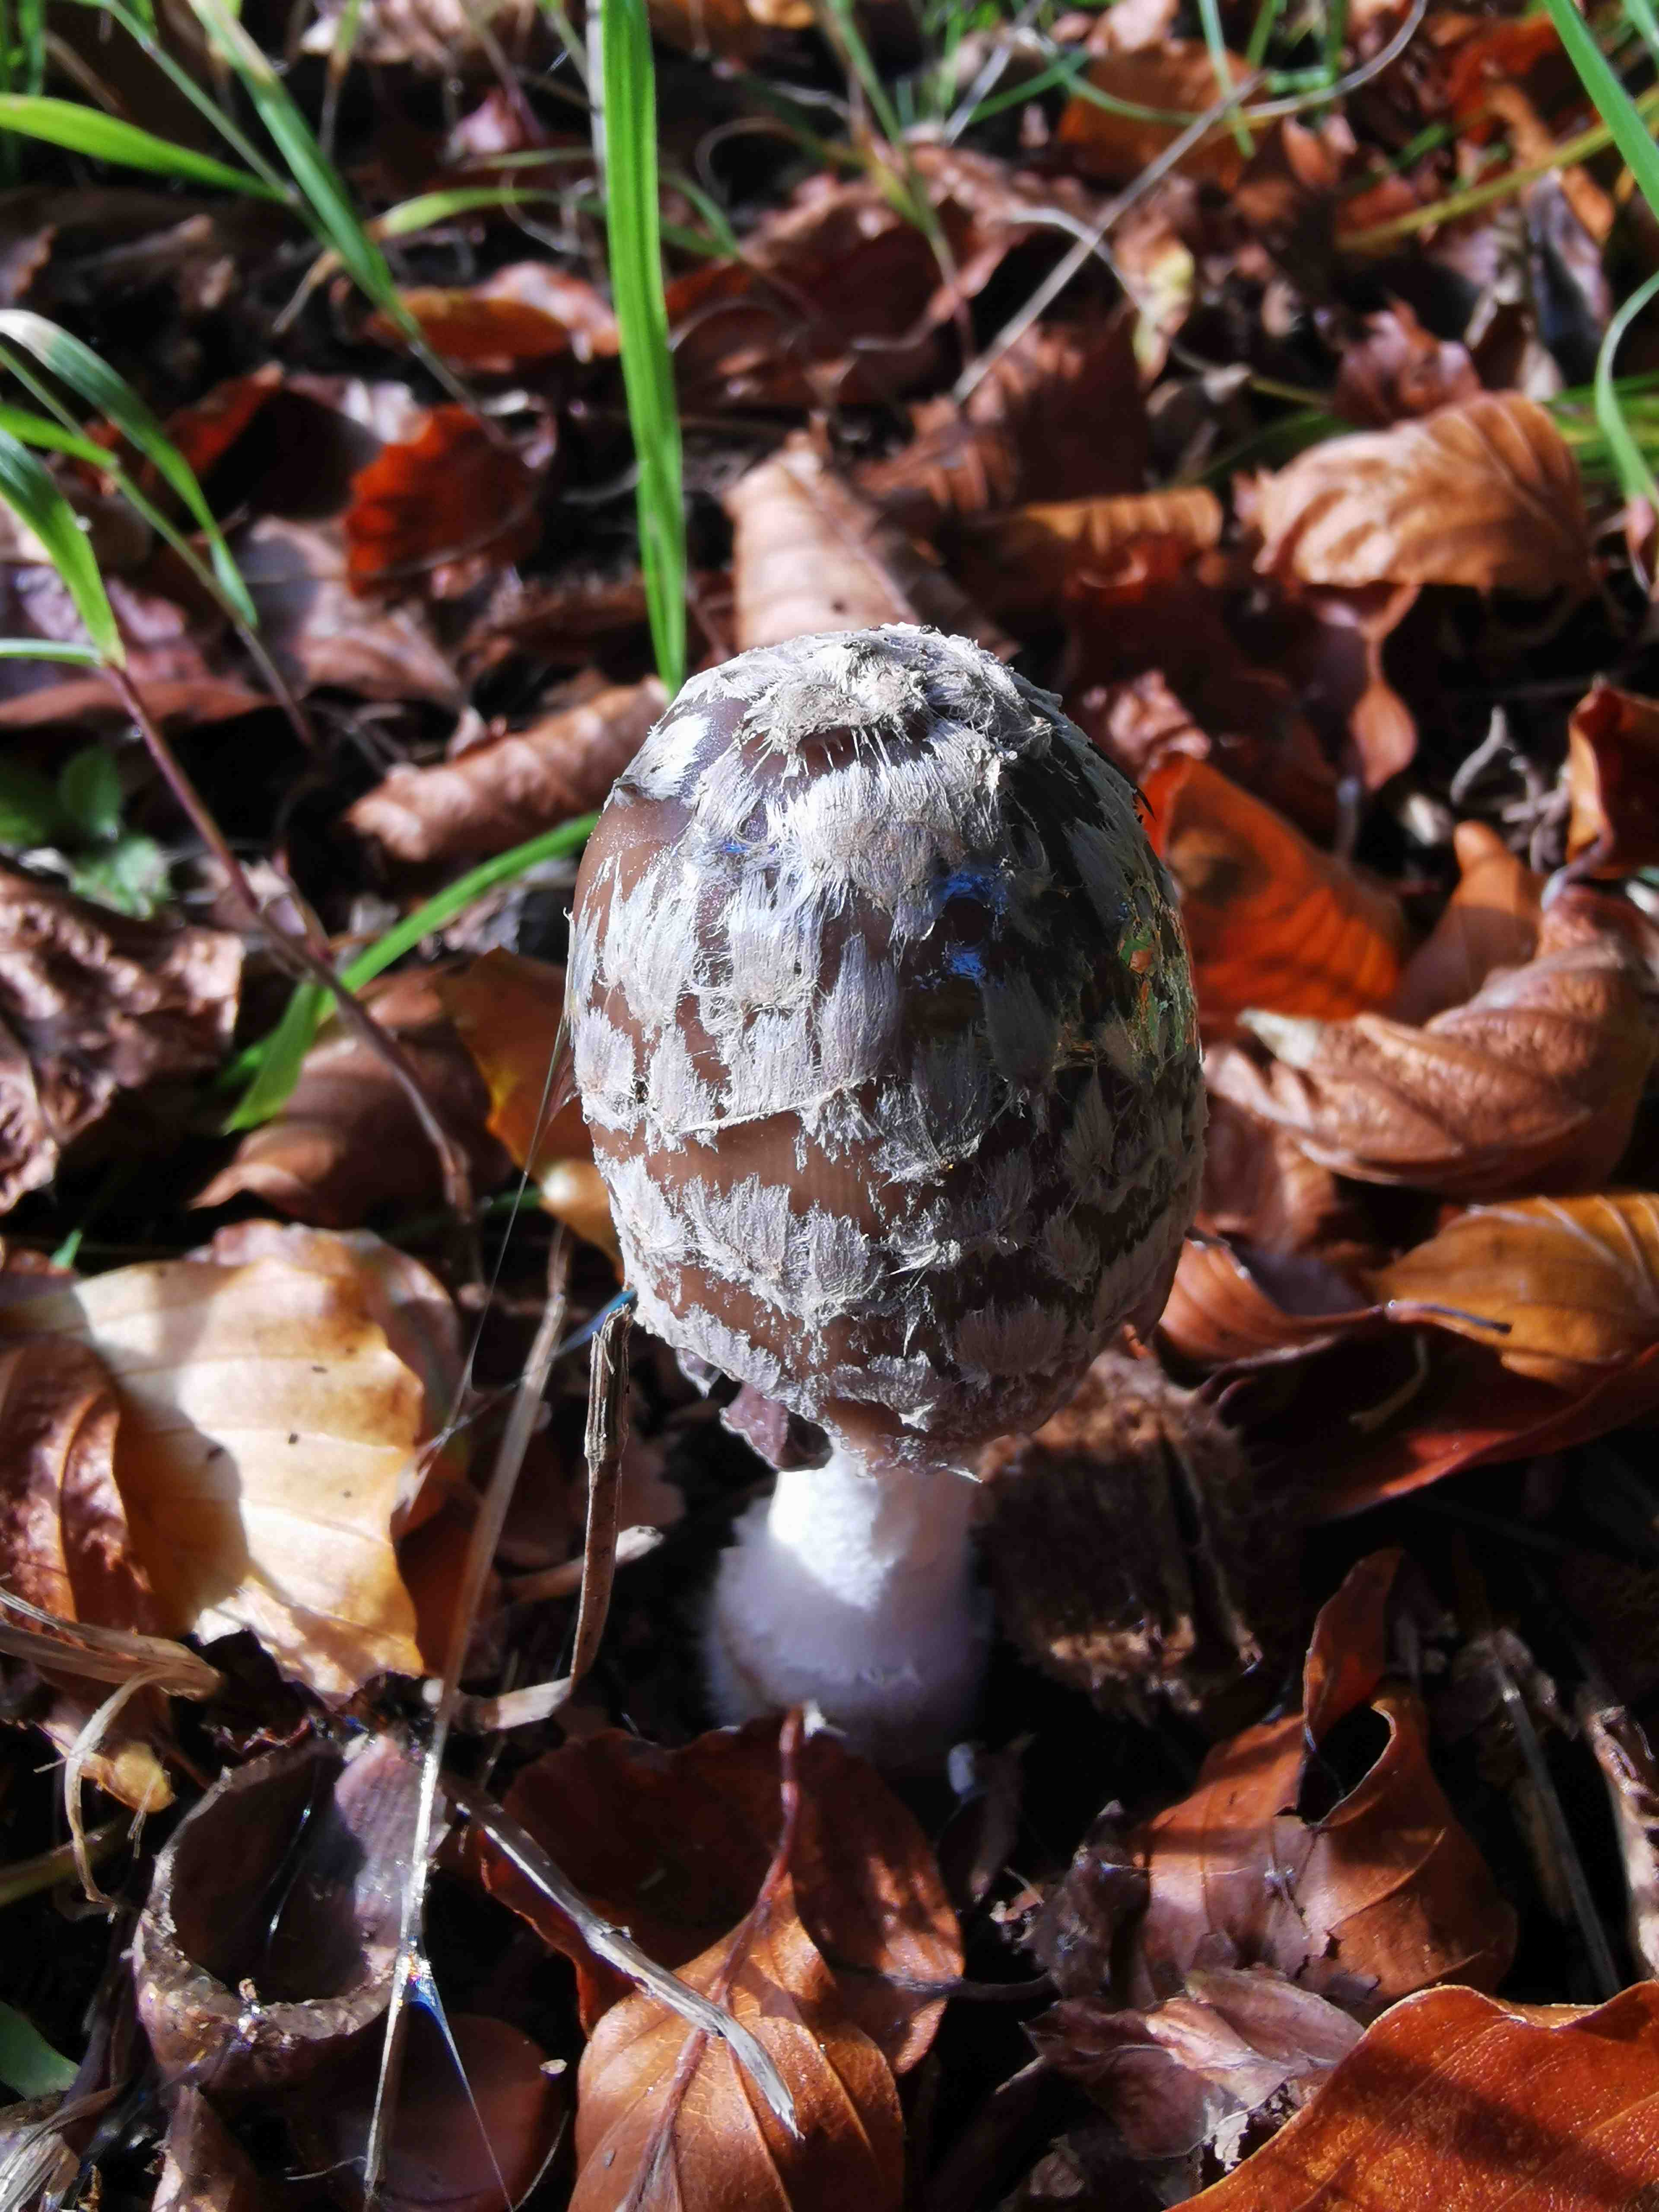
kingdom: Fungi
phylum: Basidiomycota
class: Agaricomycetes
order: Agaricales
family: Psathyrellaceae
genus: Coprinopsis
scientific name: Coprinopsis picacea
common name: skade-blækhat
